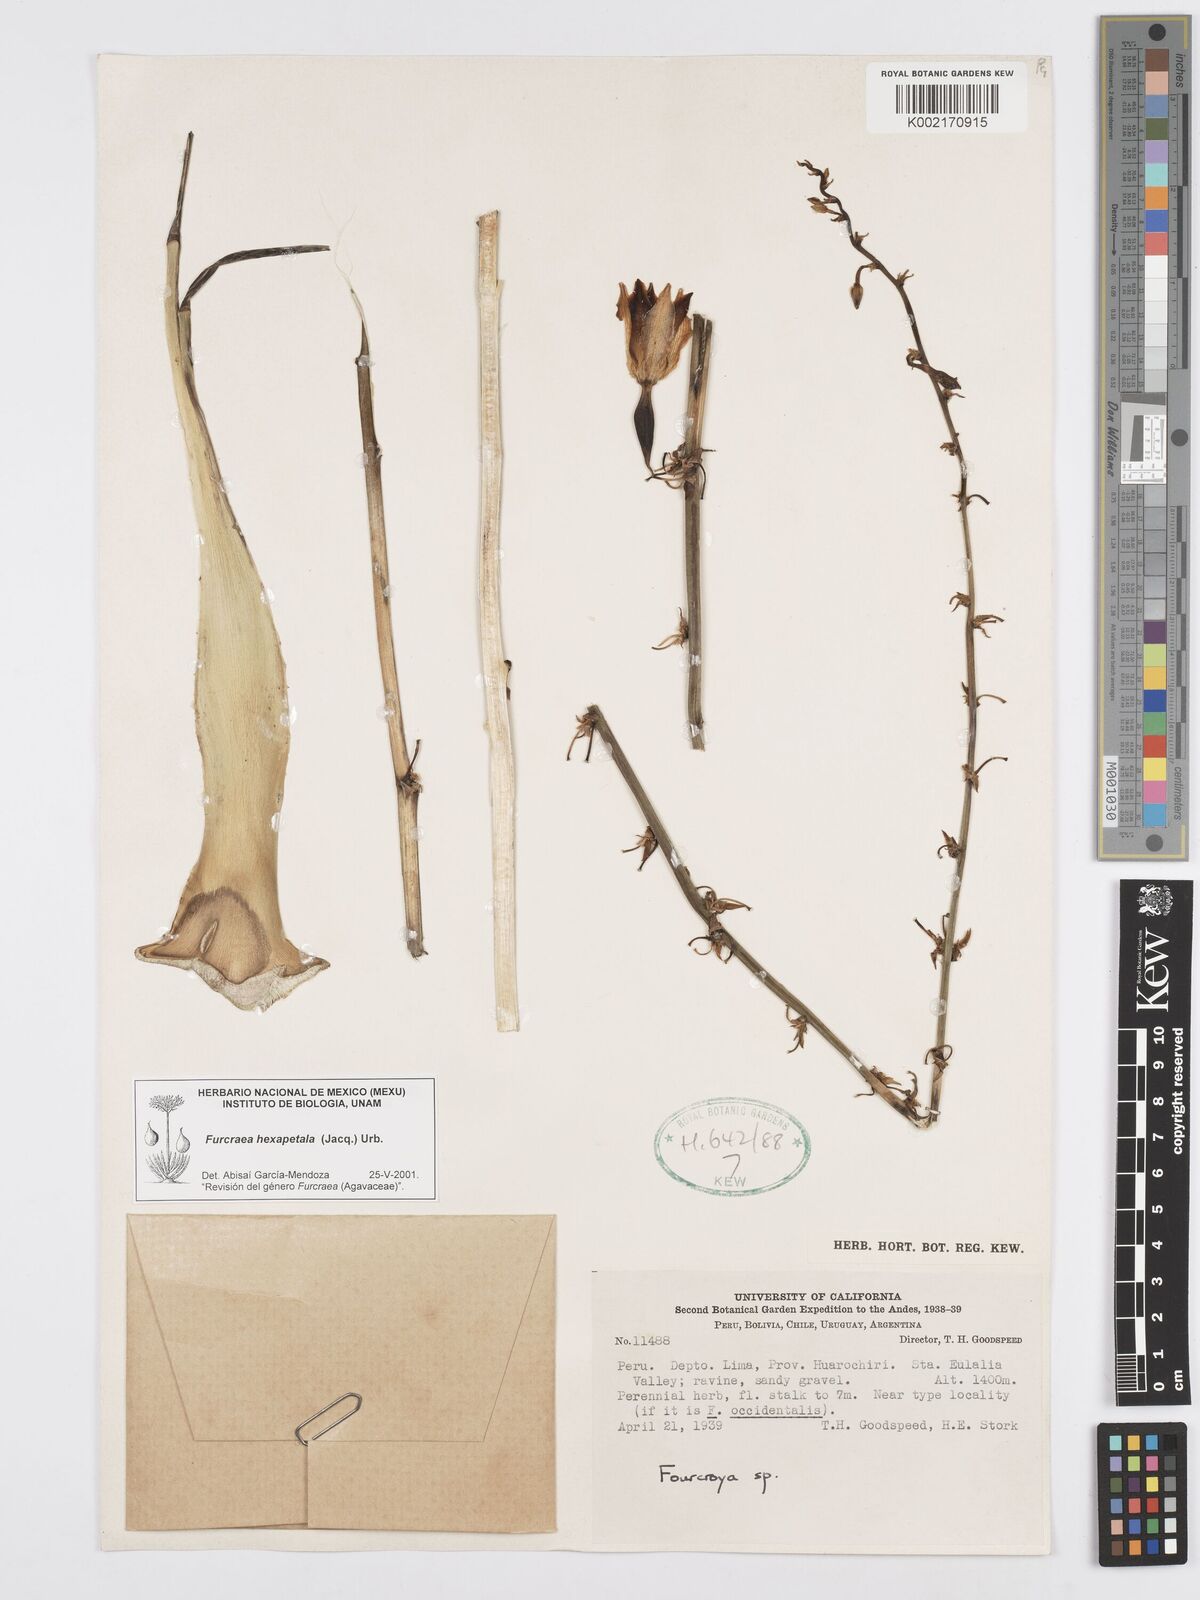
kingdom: Plantae
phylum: Tracheophyta
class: Liliopsida
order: Asparagales
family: Asparagaceae
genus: Furcraea
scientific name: Furcraea hexapetala
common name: Cuban-hemp
